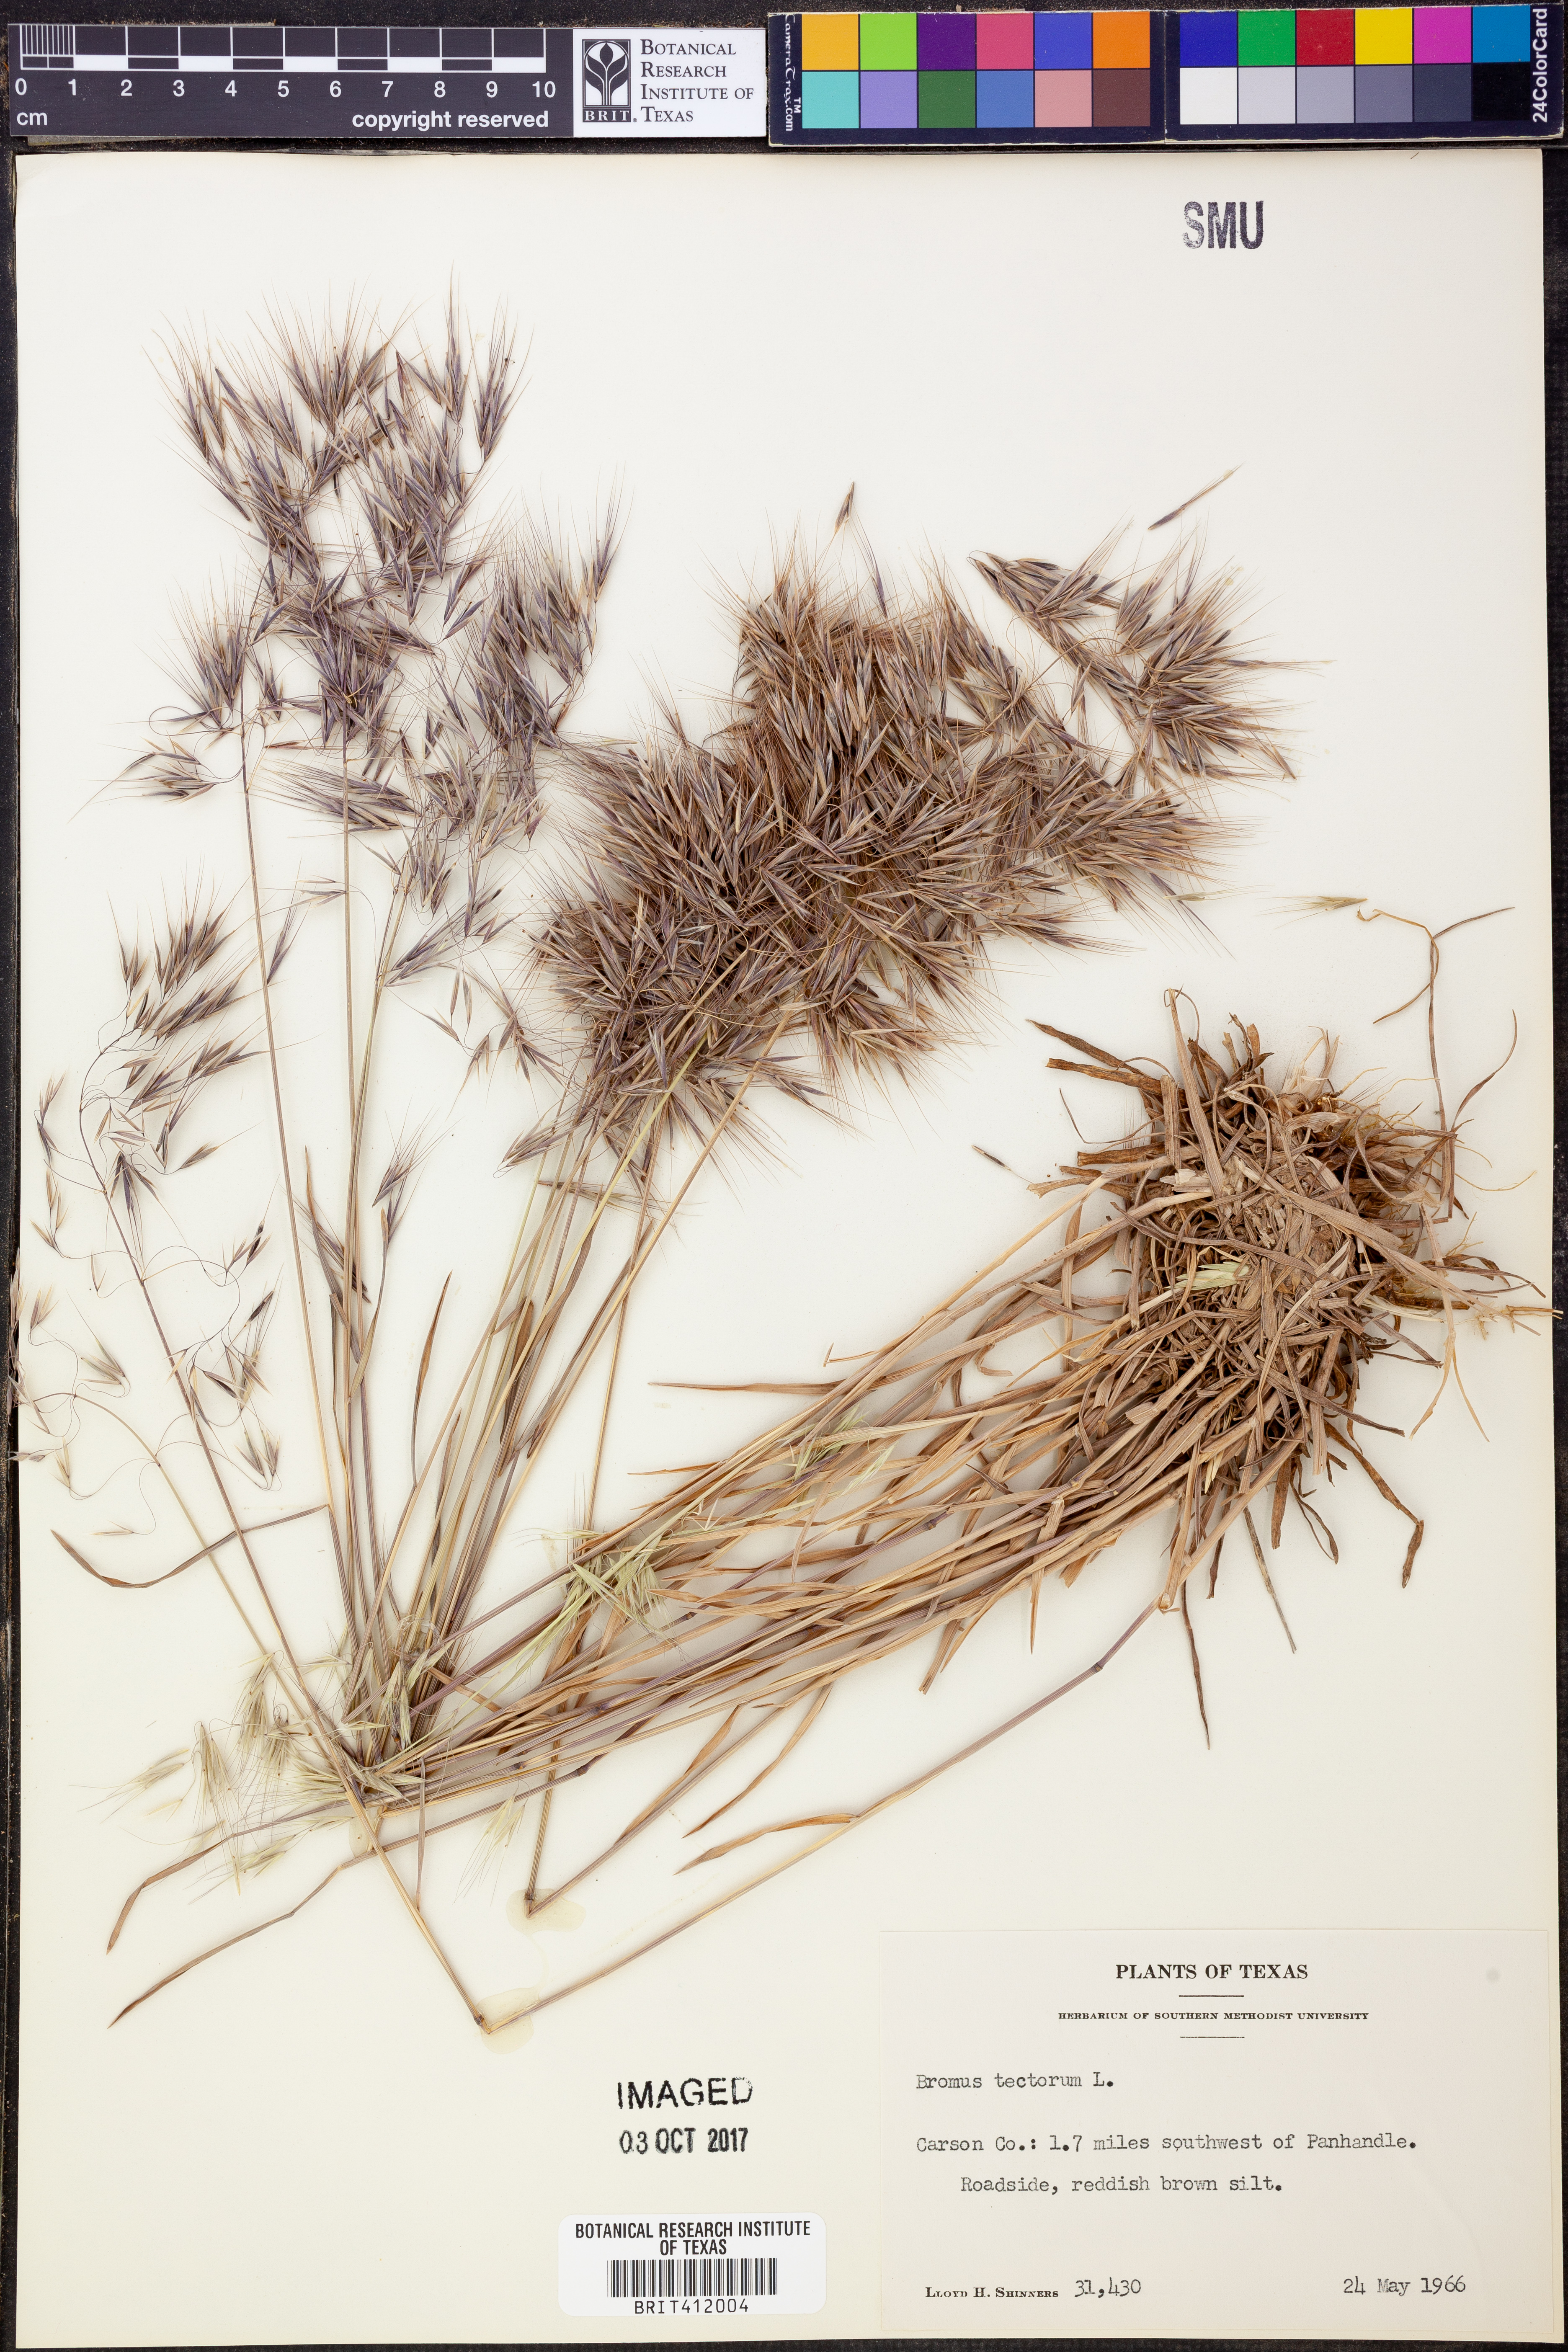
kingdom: Plantae
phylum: Tracheophyta
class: Liliopsida
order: Poales
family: Poaceae
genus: Bromus
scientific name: Bromus tectorum
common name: Cheatgrass
